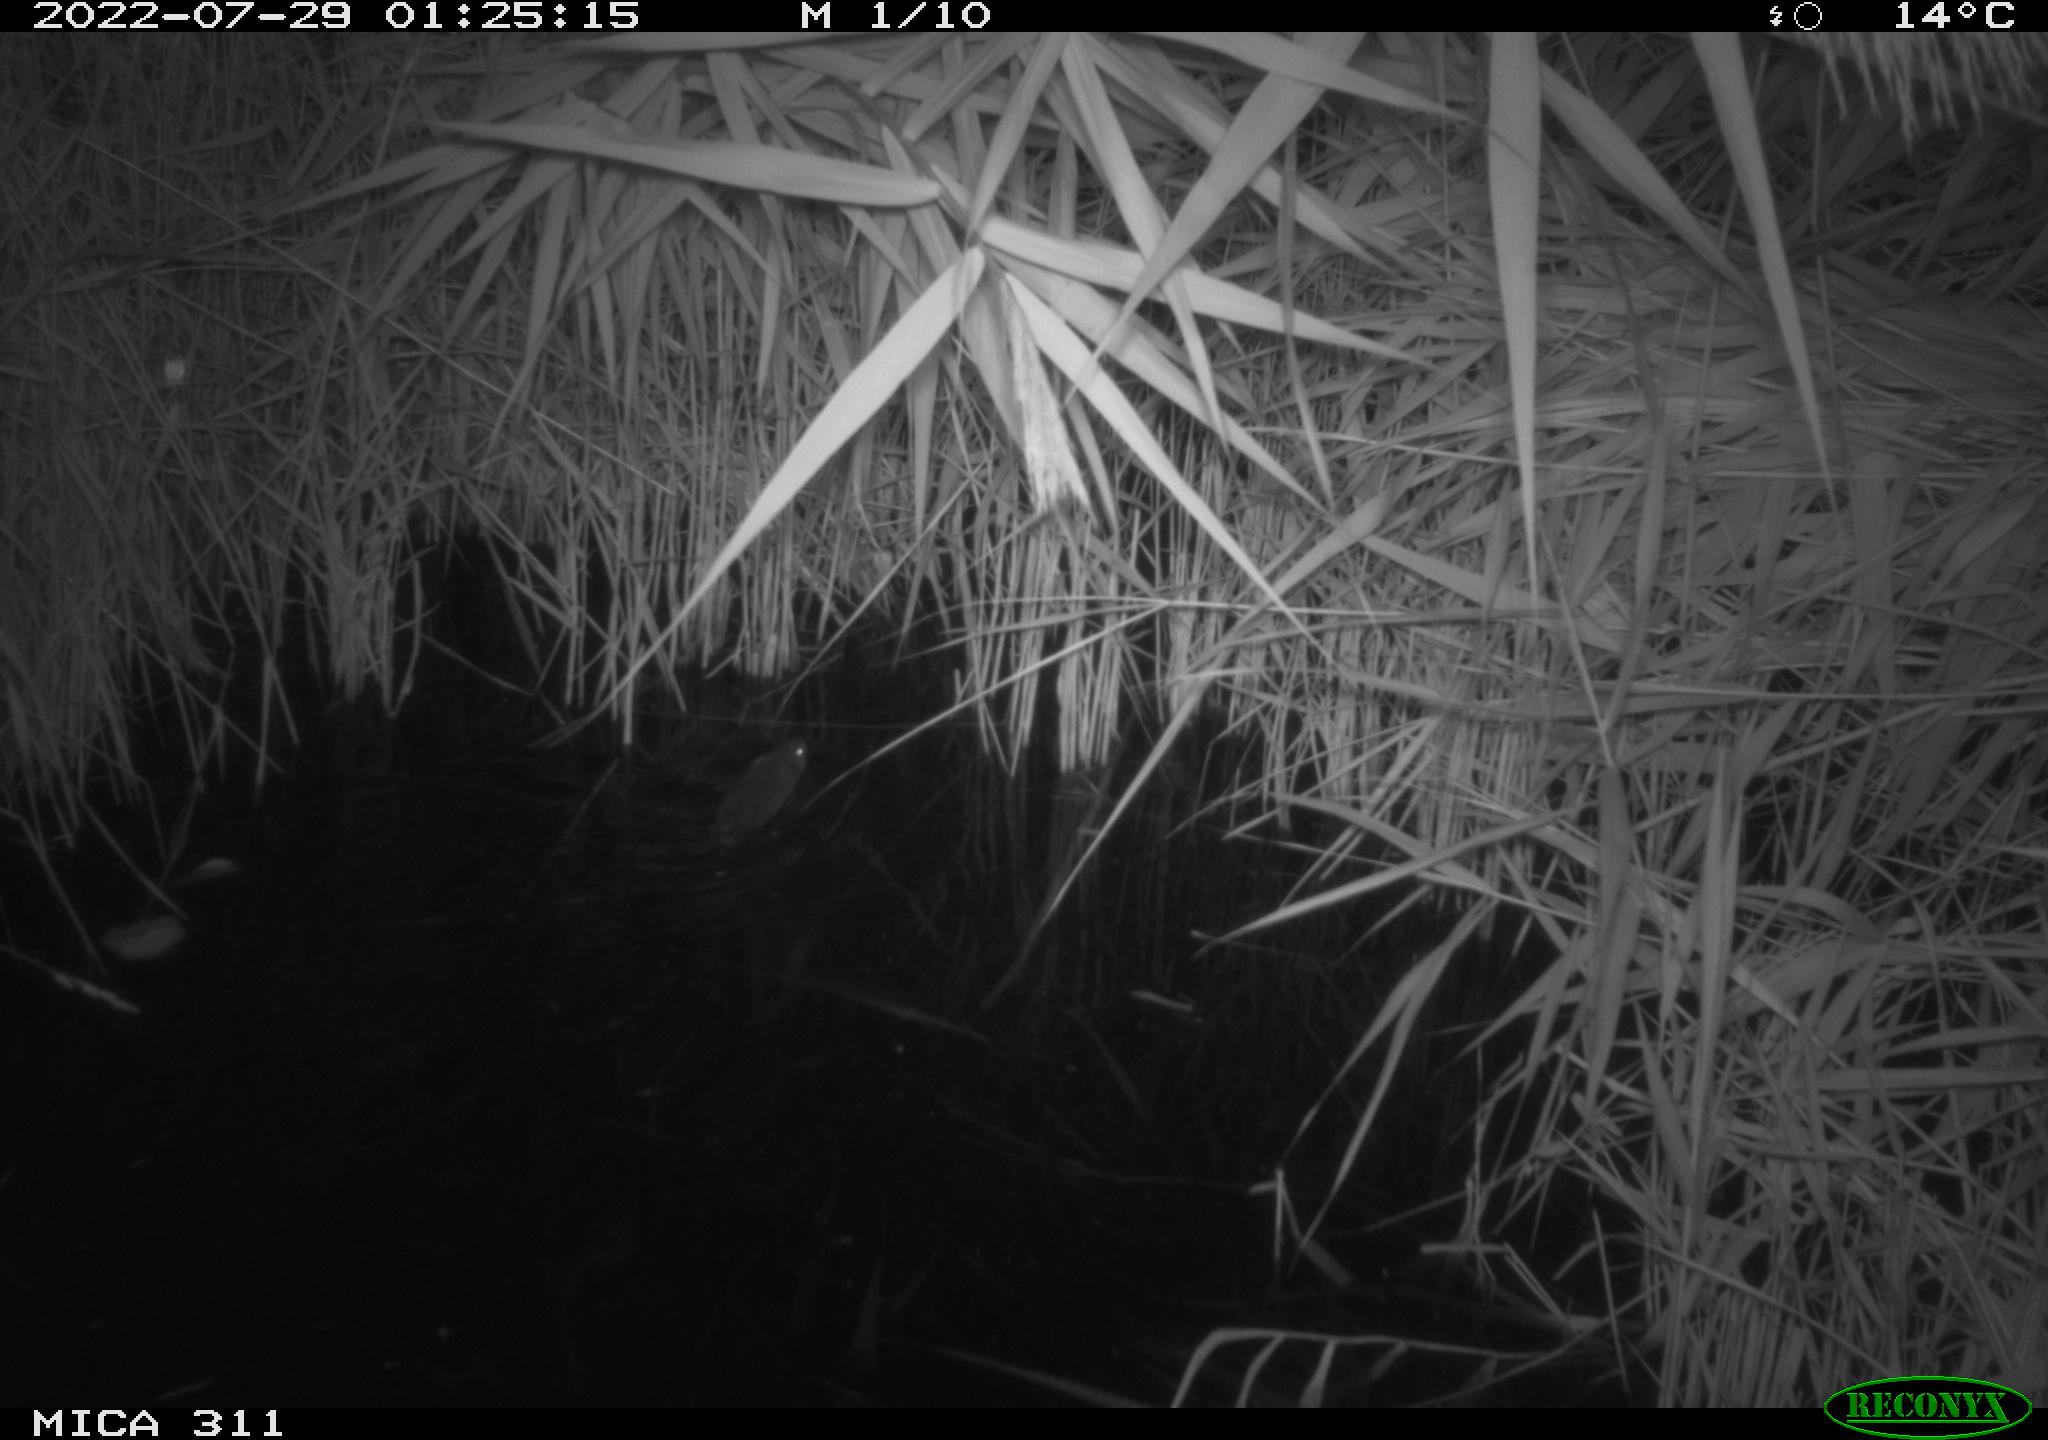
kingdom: Animalia
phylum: Chordata
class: Mammalia
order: Rodentia
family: Muridae
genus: Rattus
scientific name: Rattus norvegicus
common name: Brown rat
